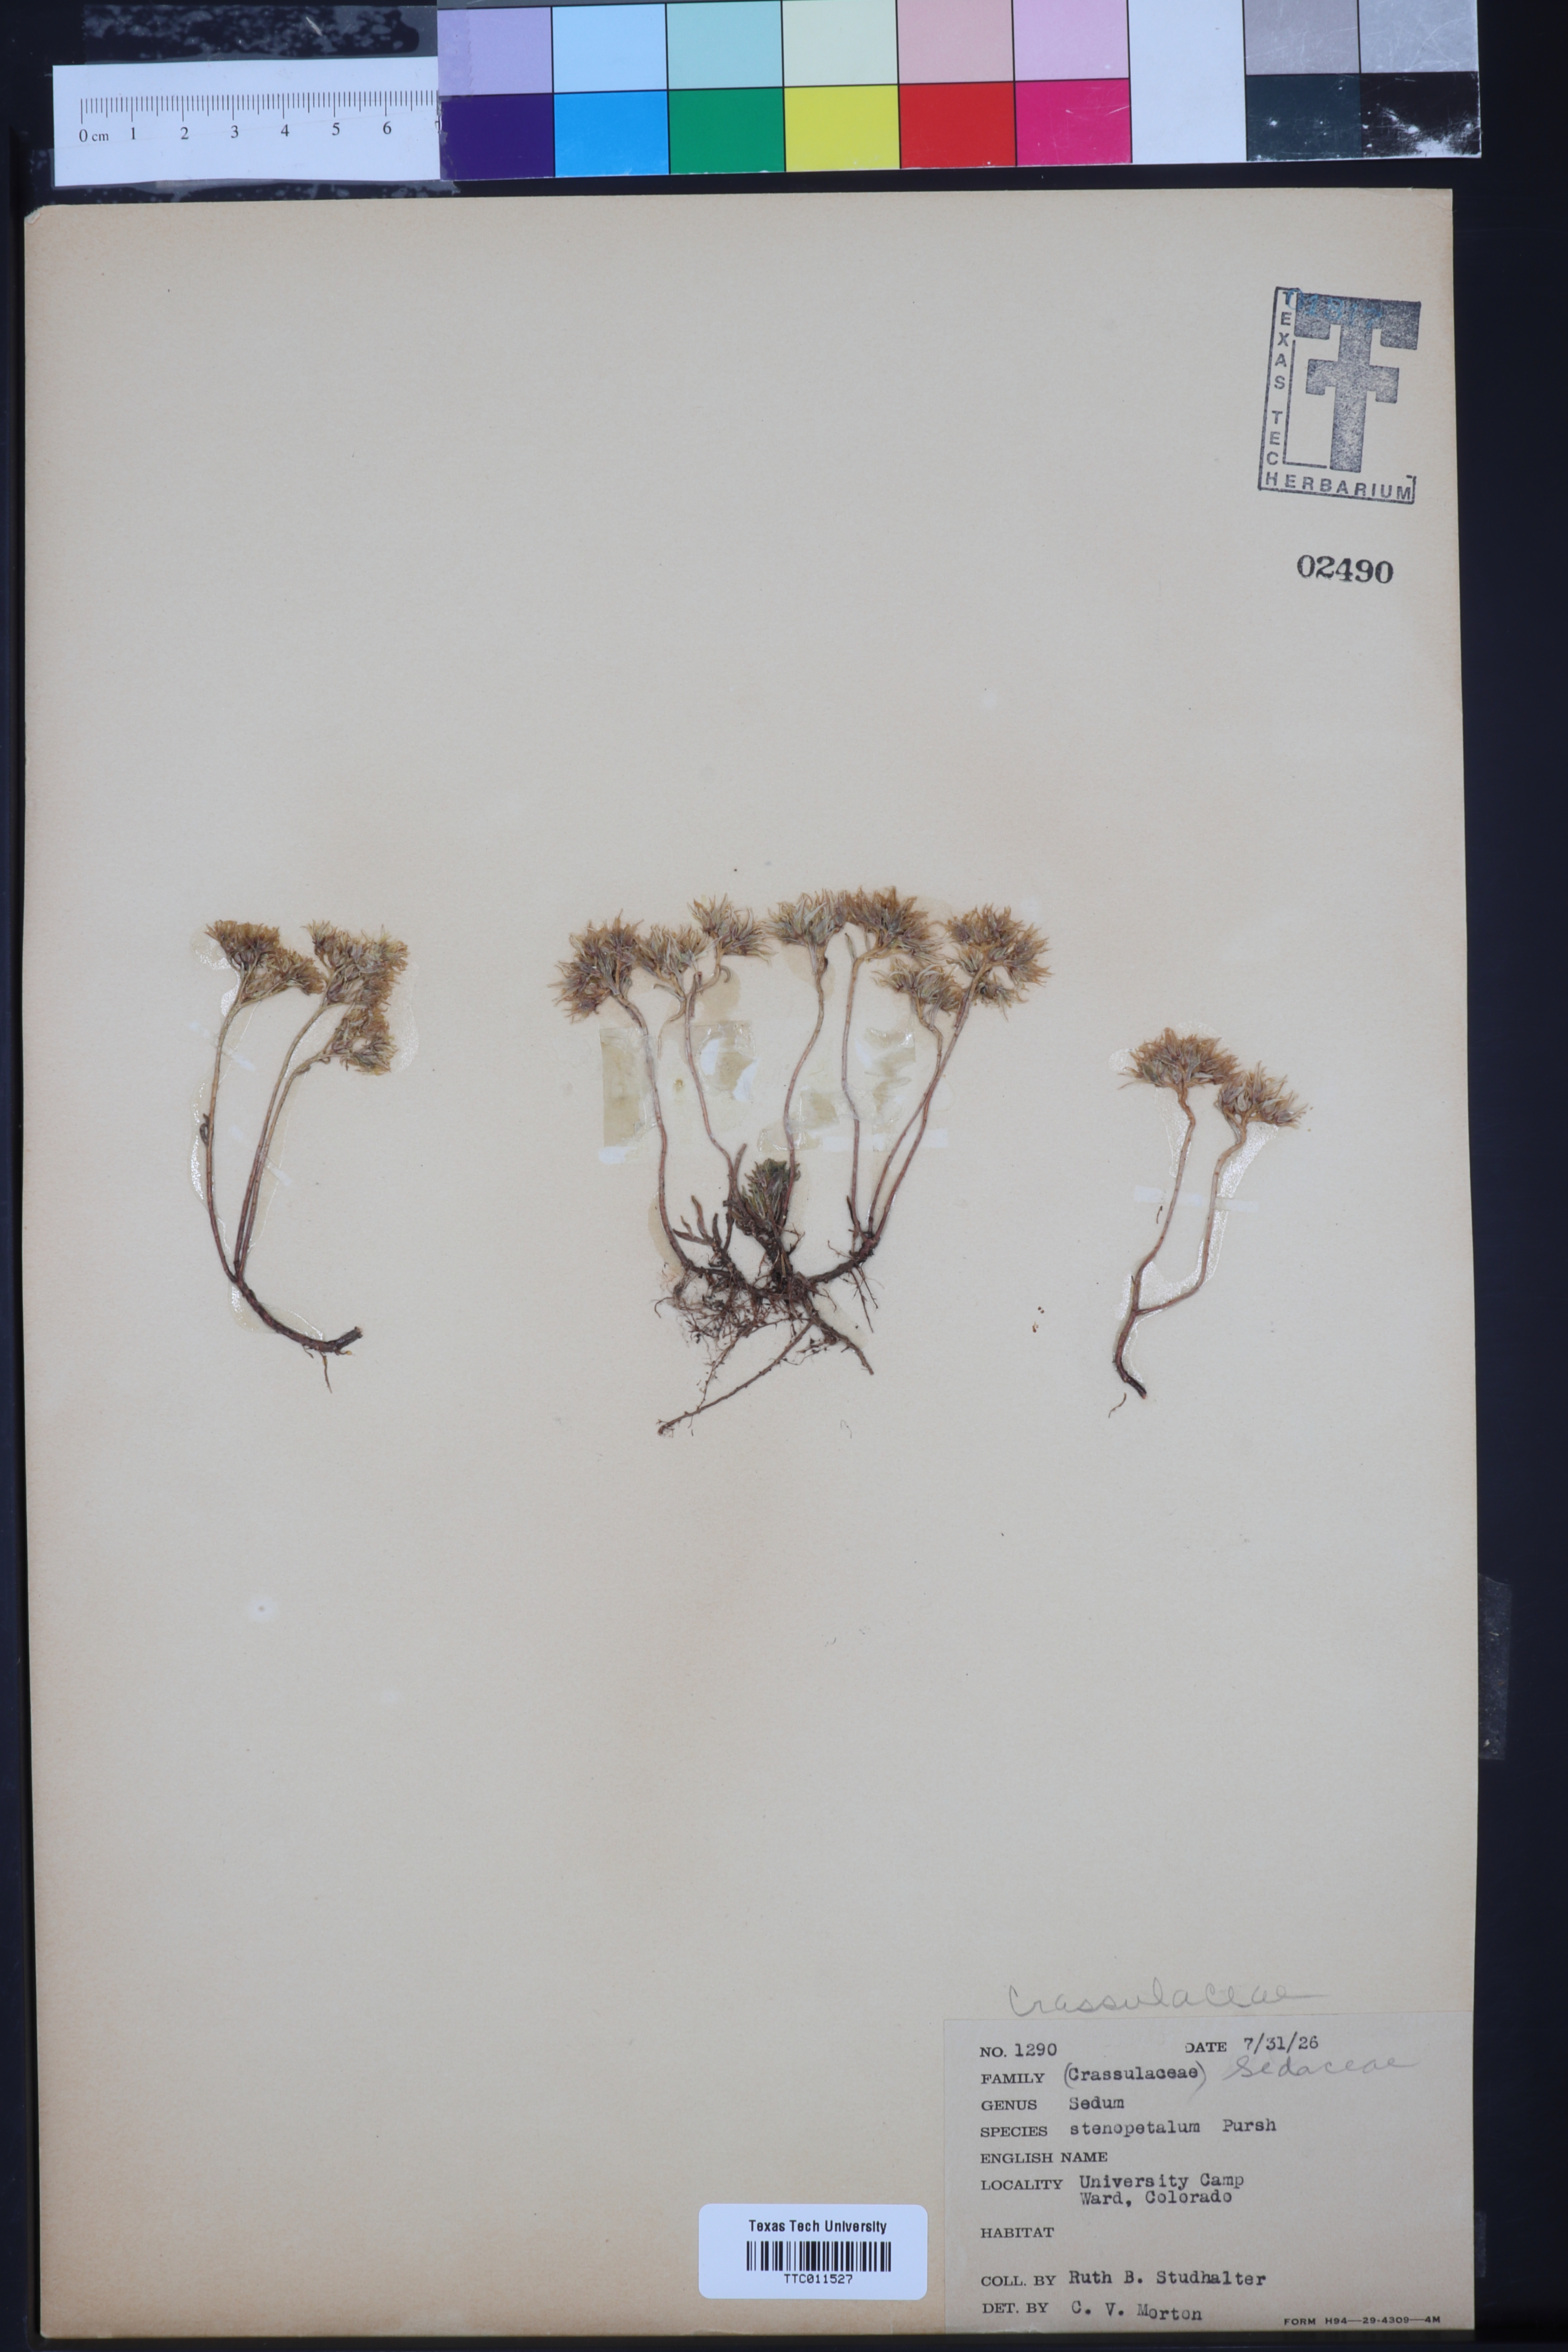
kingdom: Plantae
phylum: Tracheophyta
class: Magnoliopsida
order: Saxifragales
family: Crassulaceae
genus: Sedum
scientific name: Sedum stenopetalum
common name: Narrow-petaled stonecrop
